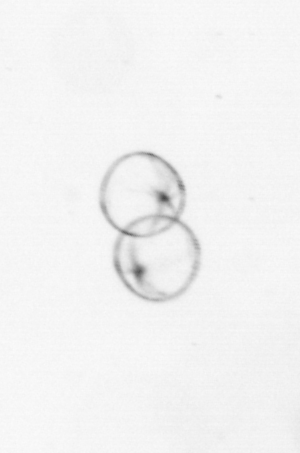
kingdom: Chromista
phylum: Myzozoa
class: Dinophyceae
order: Noctilucales
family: Noctilucaceae
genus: Noctiluca
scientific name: Noctiluca scintillans
